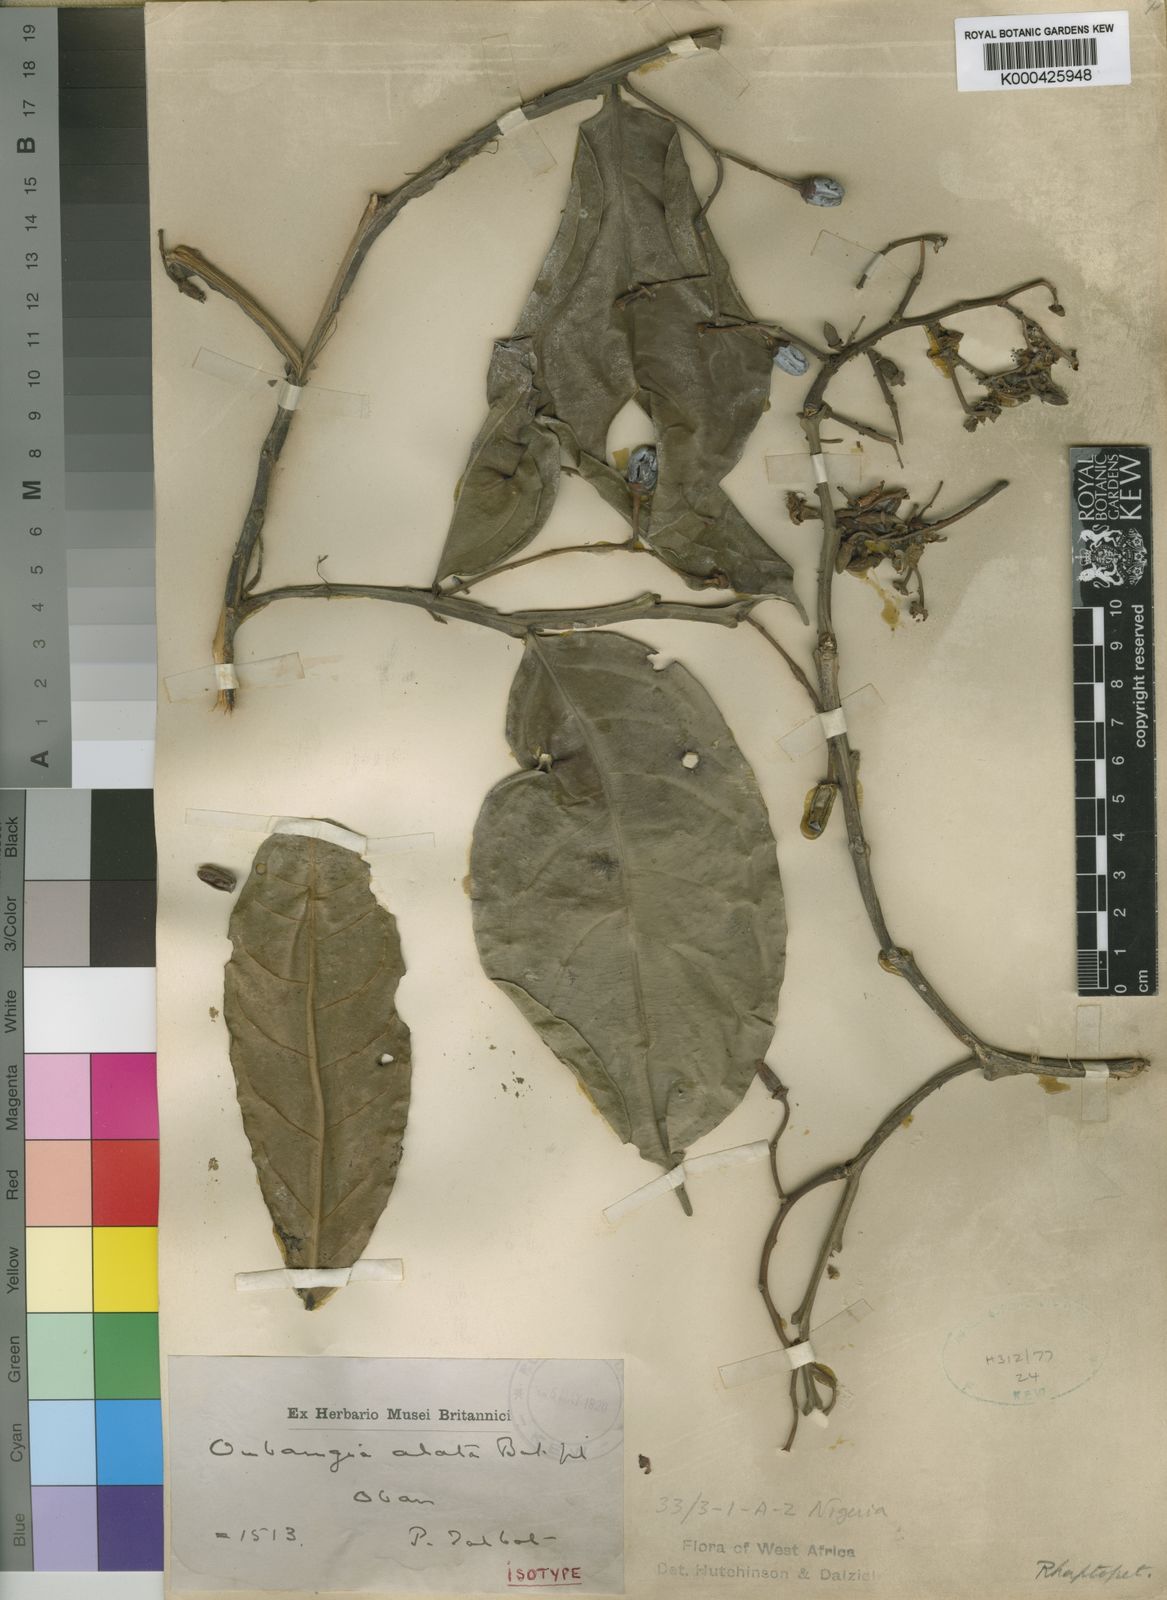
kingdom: Plantae
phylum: Tracheophyta
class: Magnoliopsida
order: Ericales
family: Lecythidaceae
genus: Oubanguia
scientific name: Oubanguia alata
